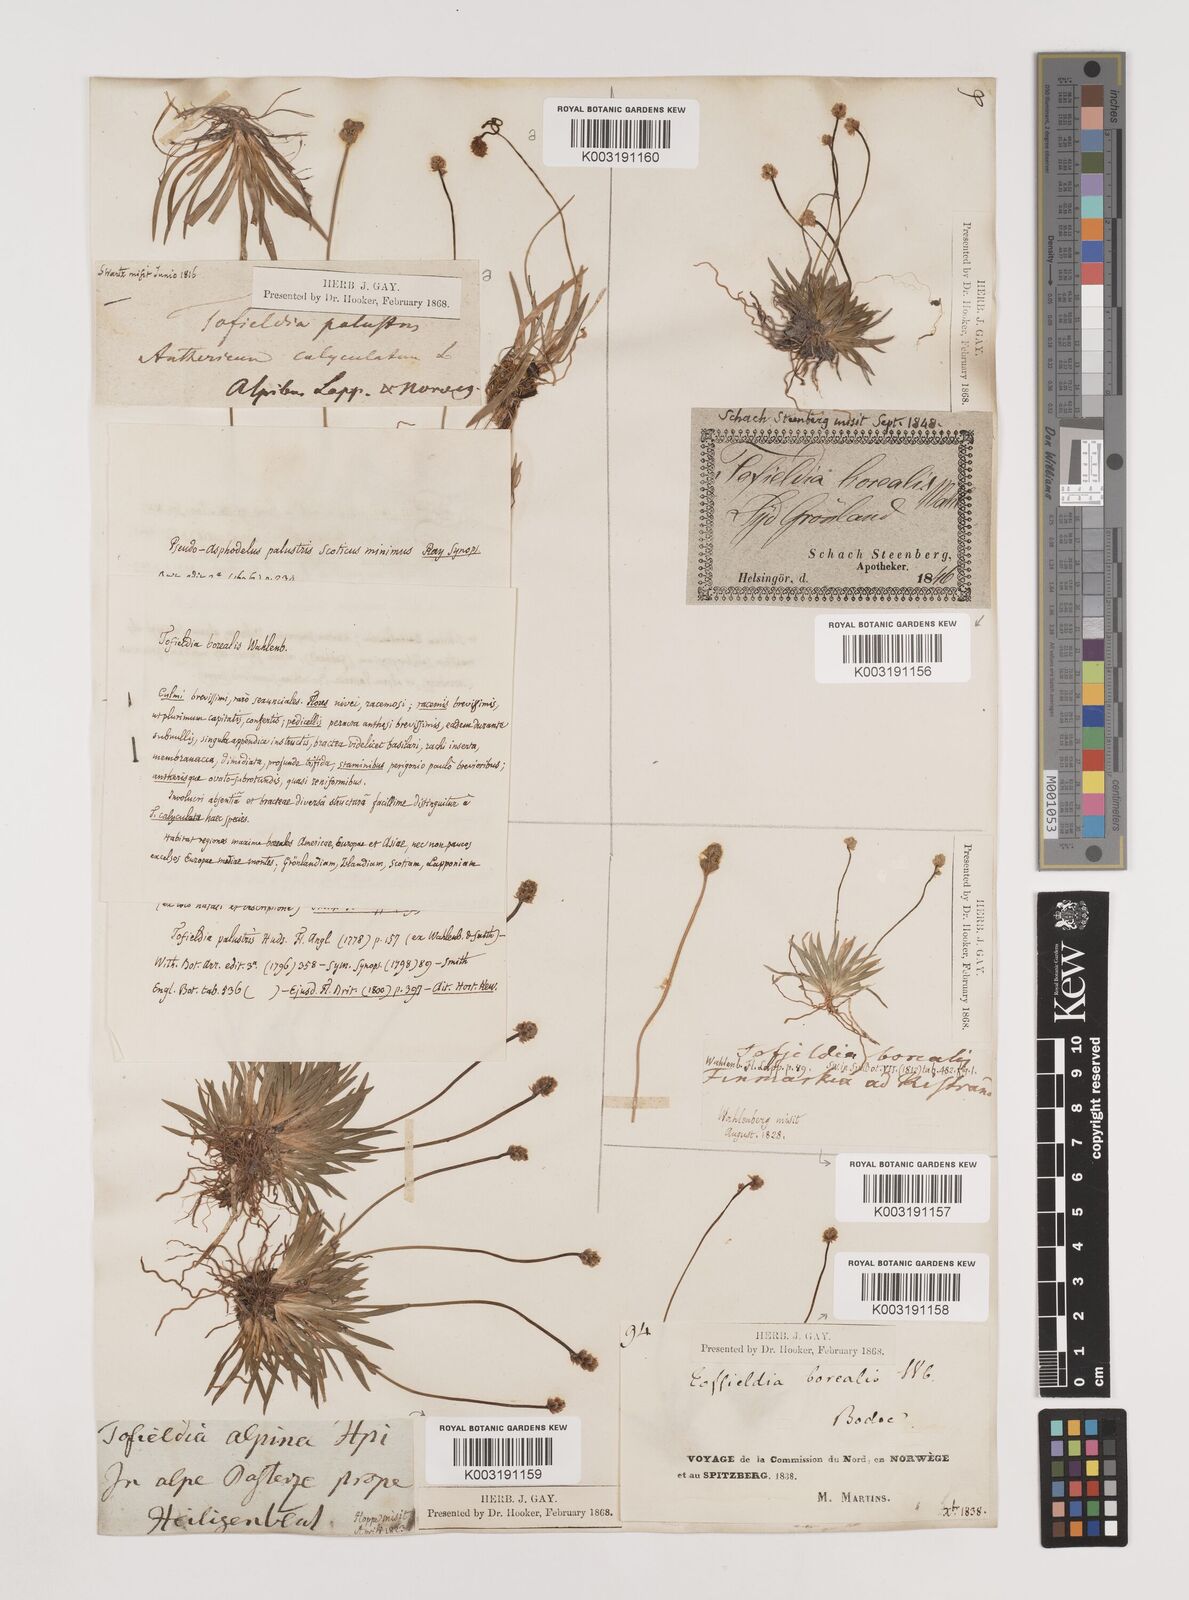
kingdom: Plantae
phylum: Tracheophyta
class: Liliopsida
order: Alismatales
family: Tofieldiaceae
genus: Tofieldia
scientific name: Tofieldia pusilla
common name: Scottish false asphodel
